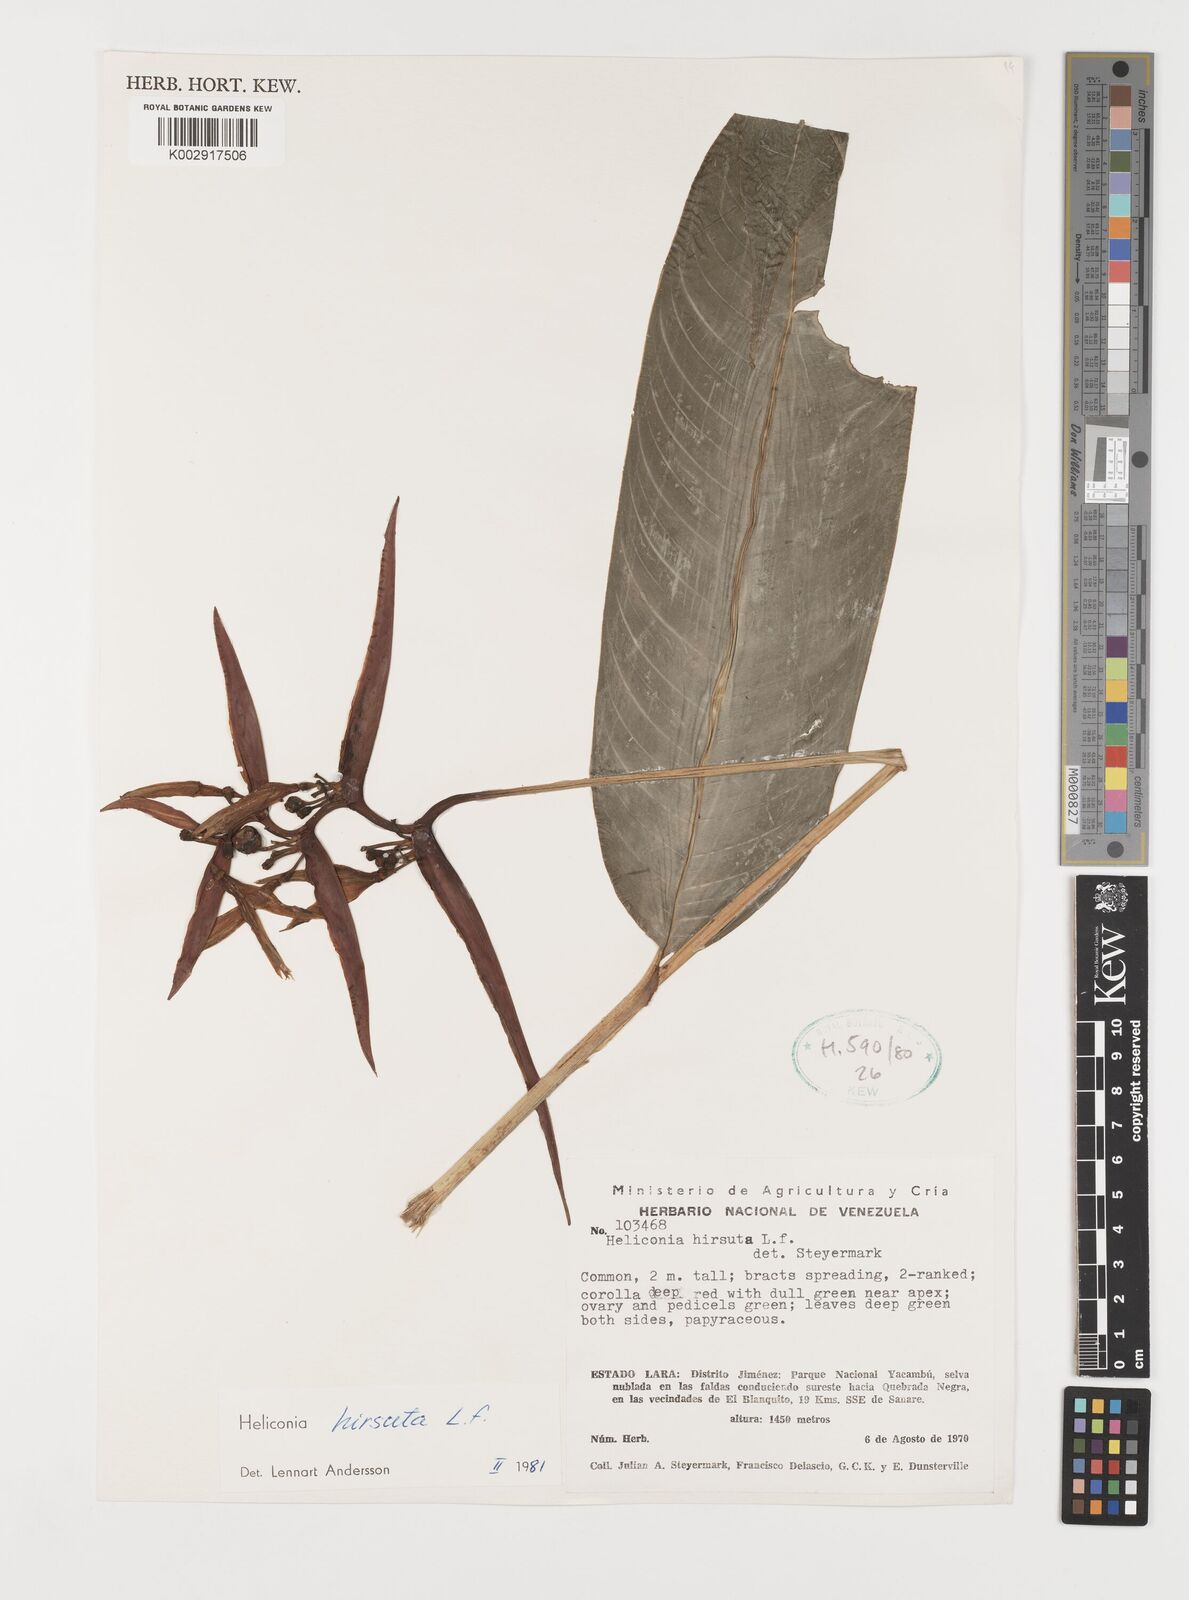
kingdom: Plantae
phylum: Tracheophyta
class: Liliopsida
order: Zingiberales
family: Heliconiaceae
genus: Heliconia
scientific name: Heliconia hirsuta
